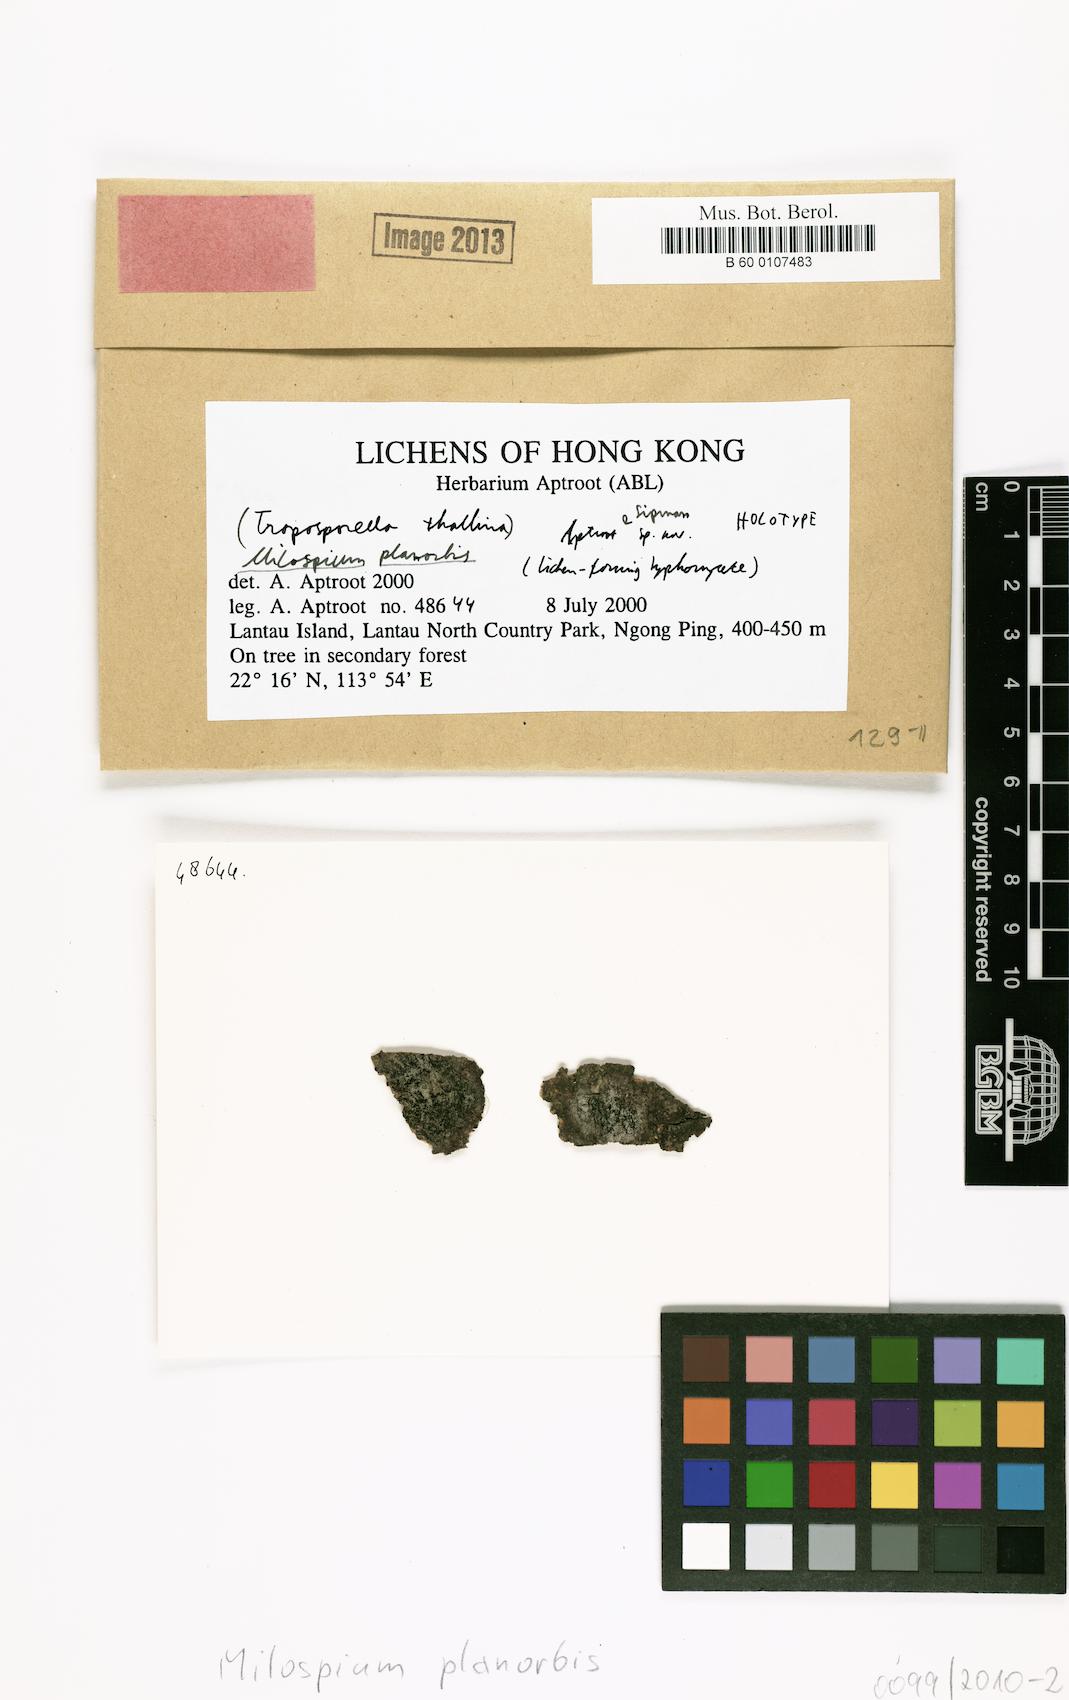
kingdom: Fungi
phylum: Ascomycota
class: Dothideomycetes
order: Pleosporales
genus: Milospium
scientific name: Milospium planorbis
